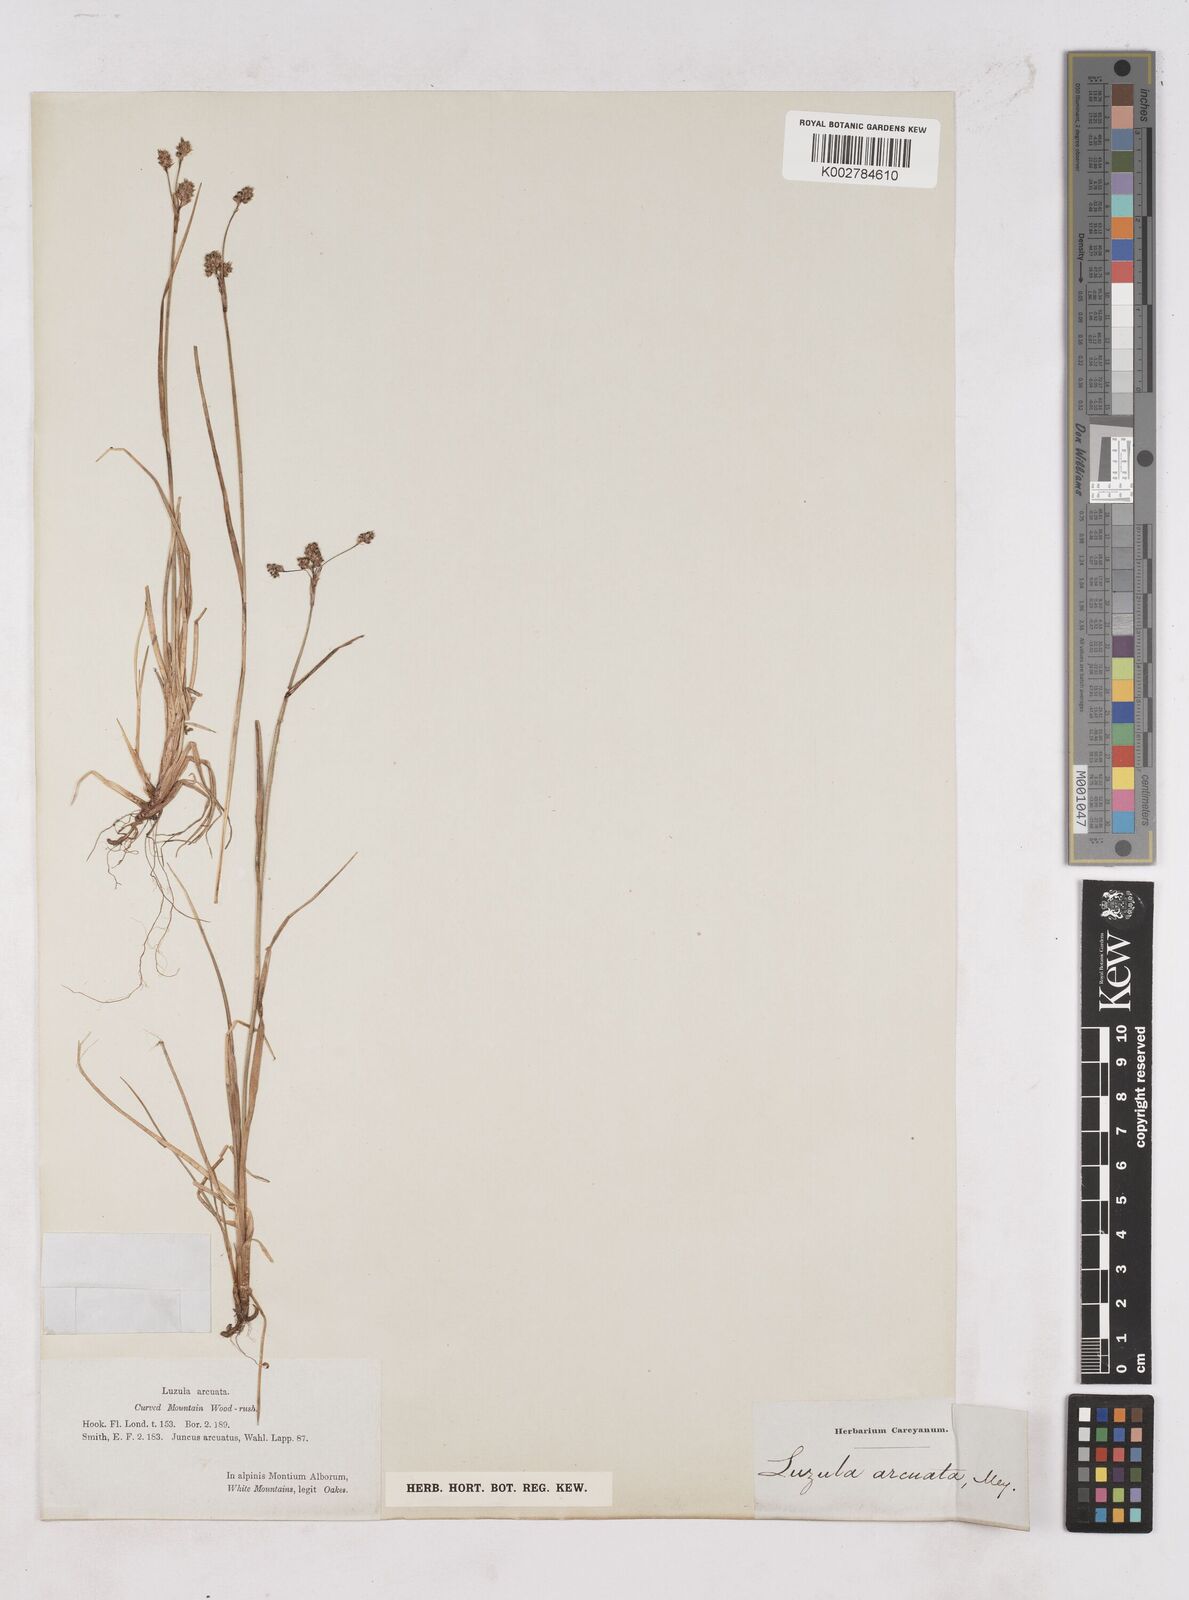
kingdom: Plantae
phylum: Tracheophyta
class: Liliopsida
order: Poales
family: Juncaceae
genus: Luzula
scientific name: Luzula arcuata
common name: Curved wood-rush
